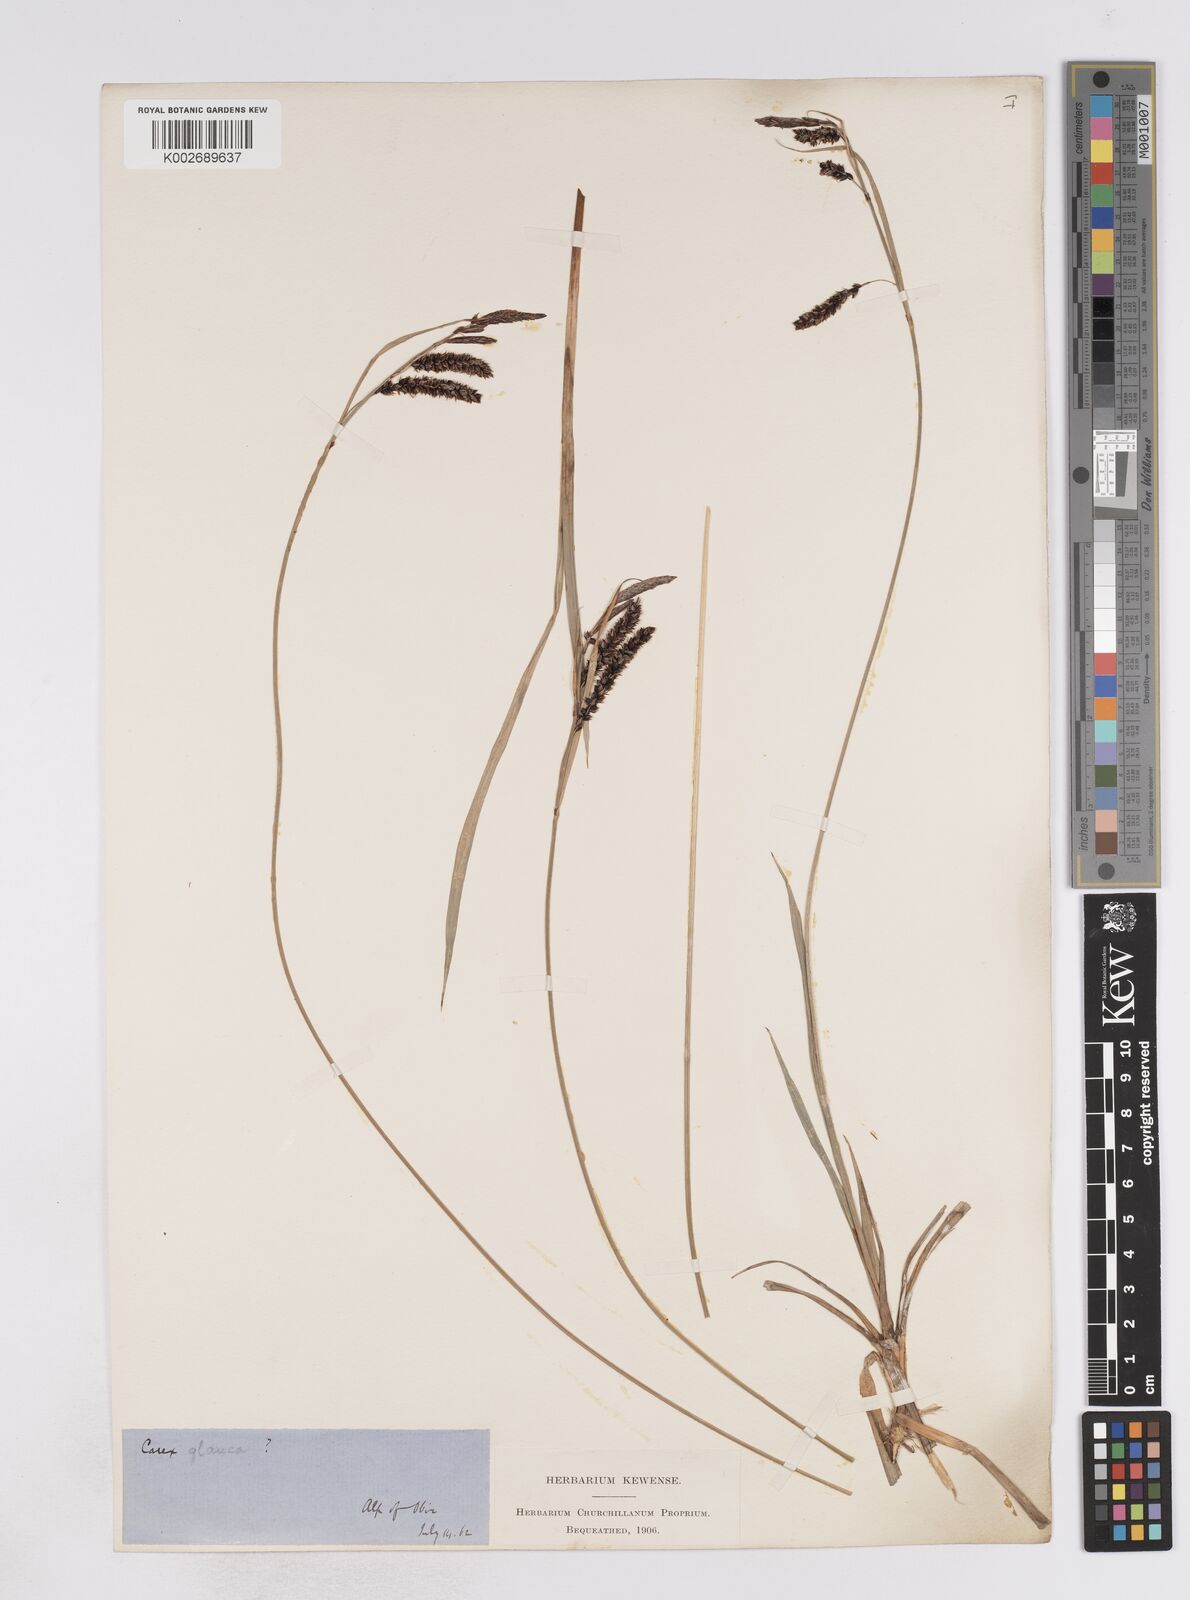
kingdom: Plantae
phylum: Tracheophyta
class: Liliopsida
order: Poales
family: Cyperaceae
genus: Carex
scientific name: Carex flacca
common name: Glaucous sedge
